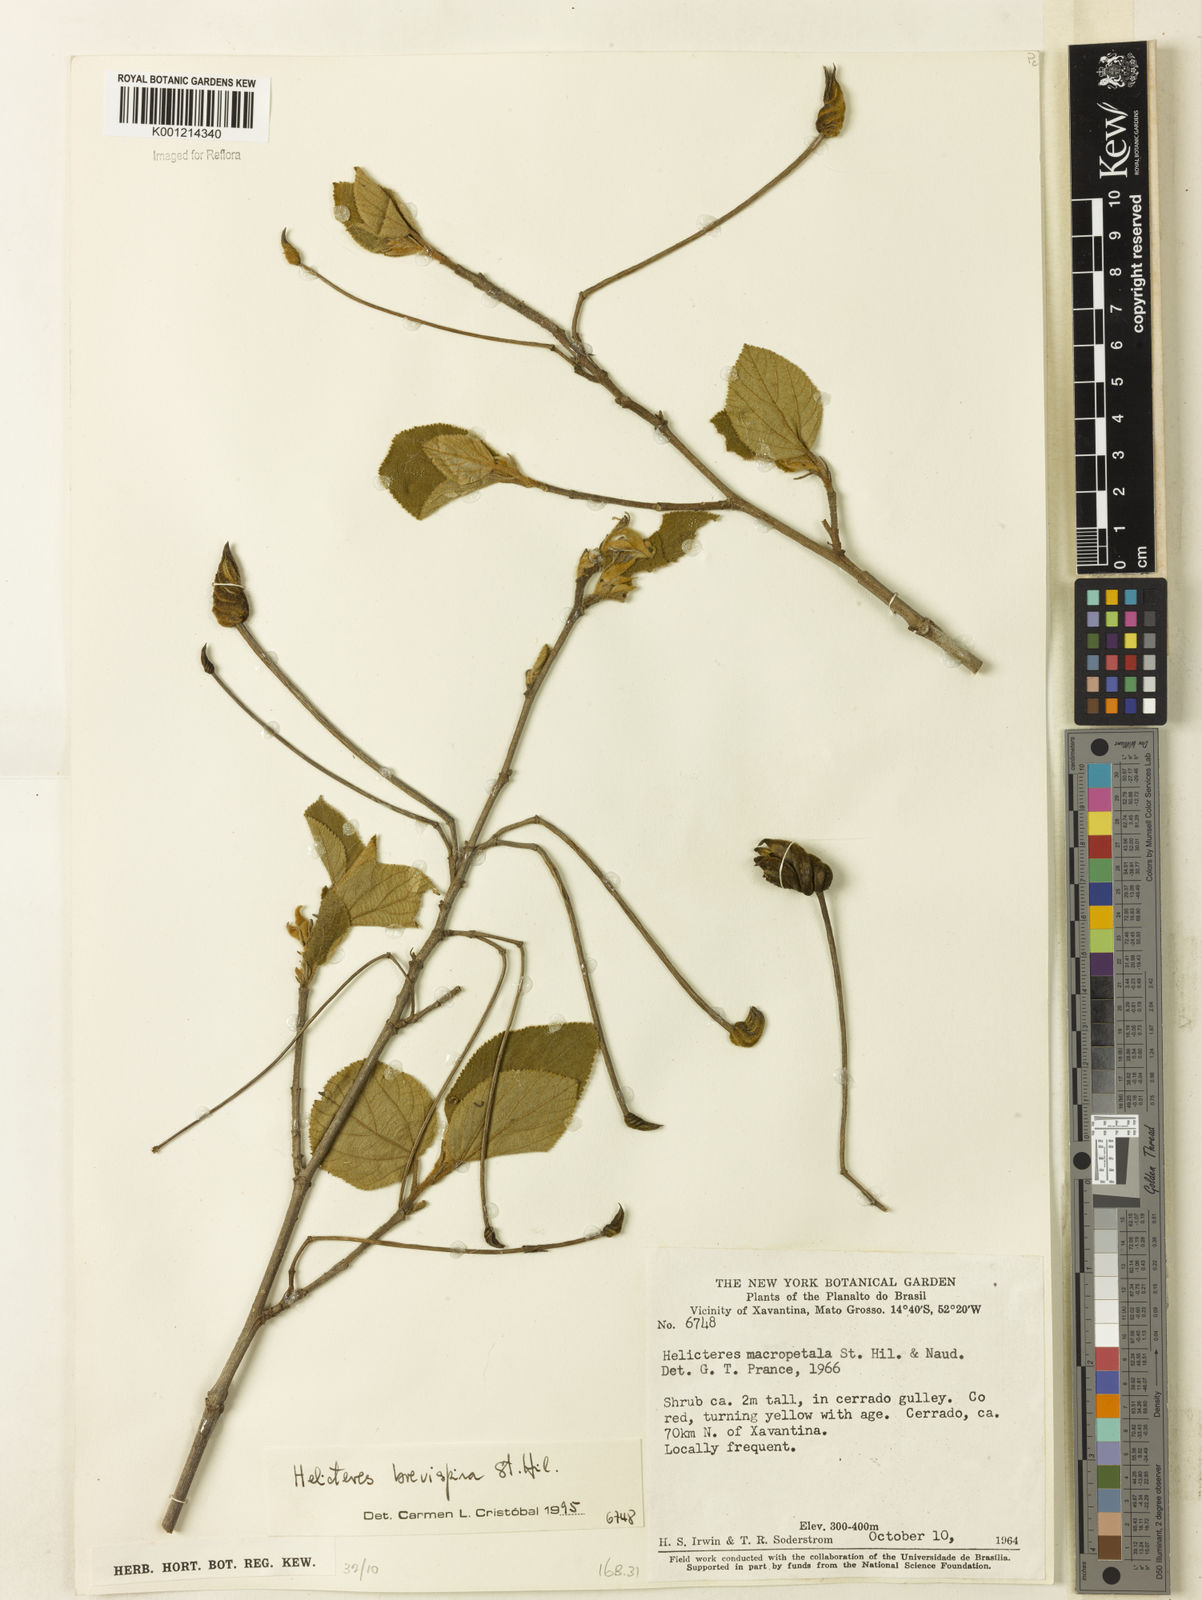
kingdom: Plantae
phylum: Tracheophyta
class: Magnoliopsida
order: Malvales
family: Malvaceae
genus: Helicteres
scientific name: Helicteres
